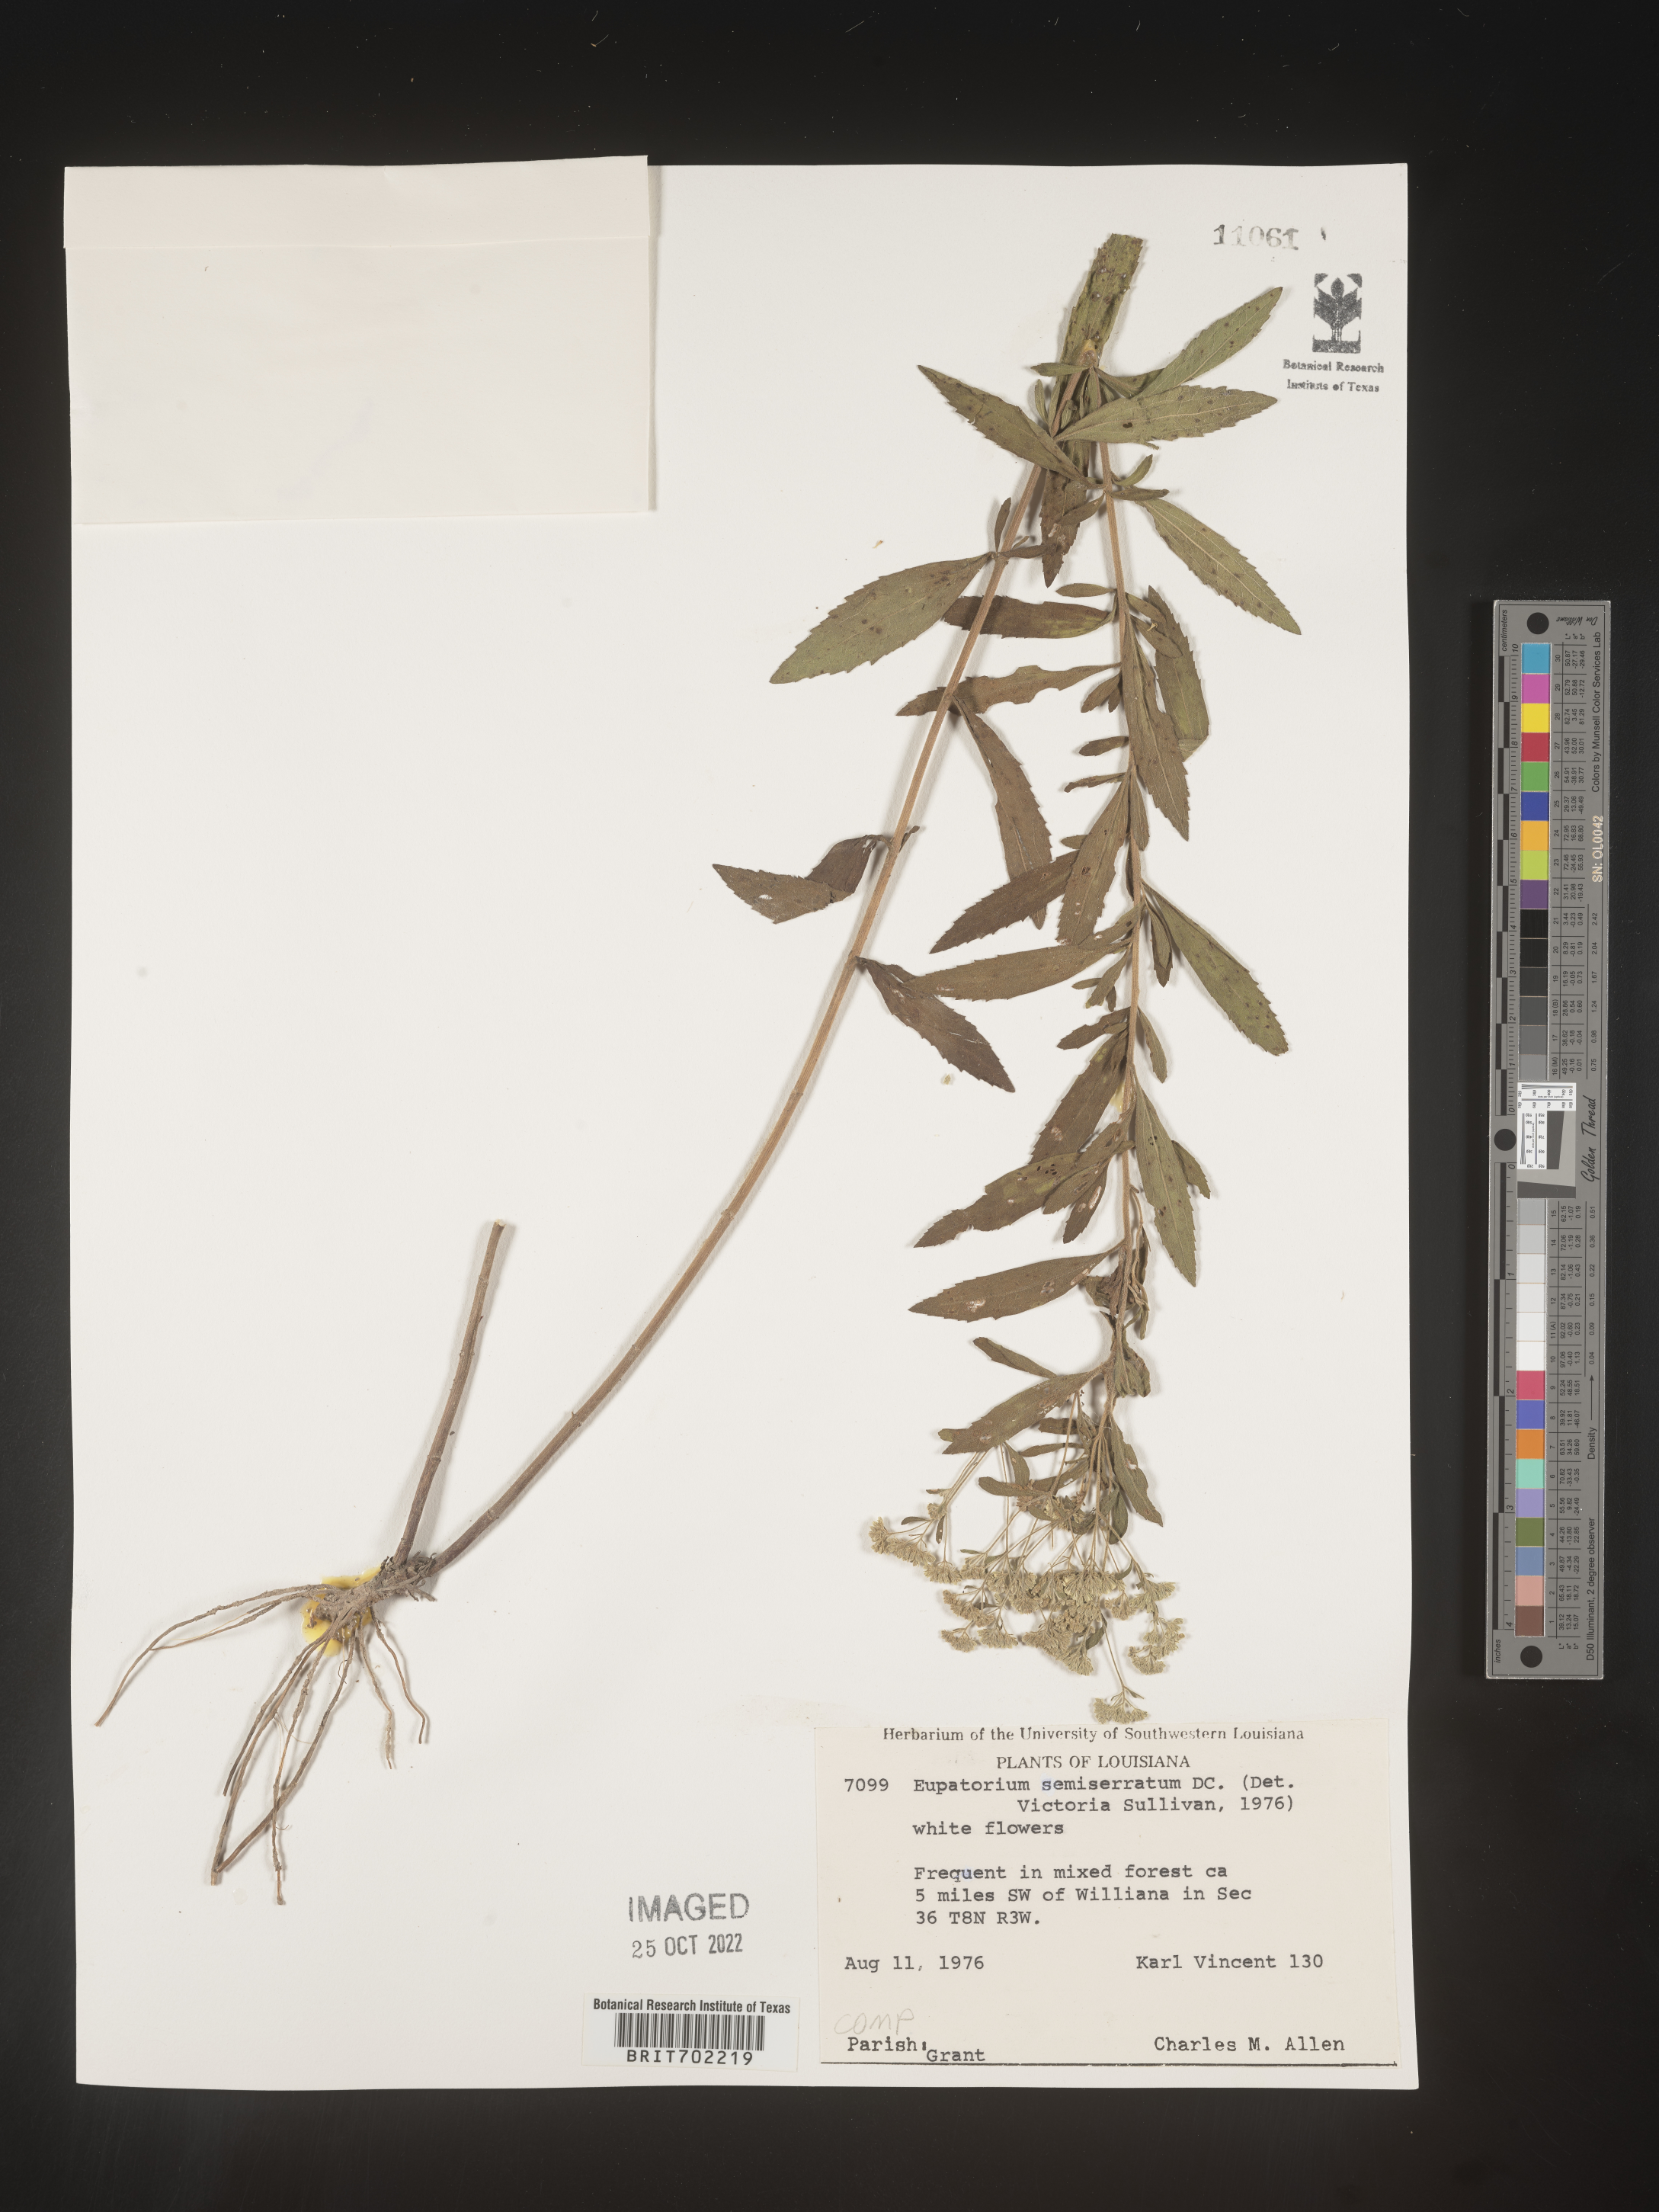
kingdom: Plantae
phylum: Tracheophyta
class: Magnoliopsida
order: Asterales
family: Asteraceae
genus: Eupatorium
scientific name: Eupatorium semiserratum
